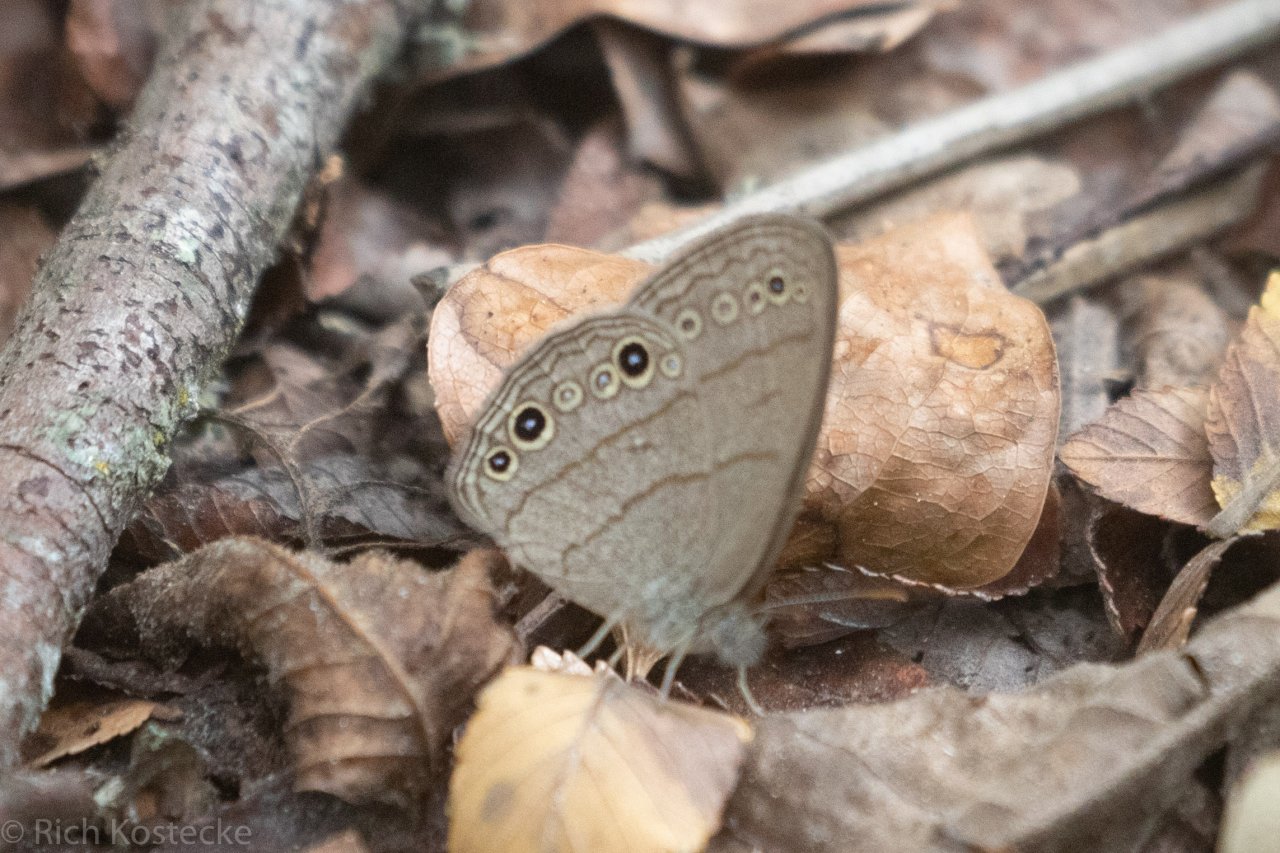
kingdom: Animalia
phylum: Arthropoda
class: Insecta
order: Lepidoptera
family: Nymphalidae
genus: Hermeuptychia
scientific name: Hermeuptychia hermes
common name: Carolina Satyr
